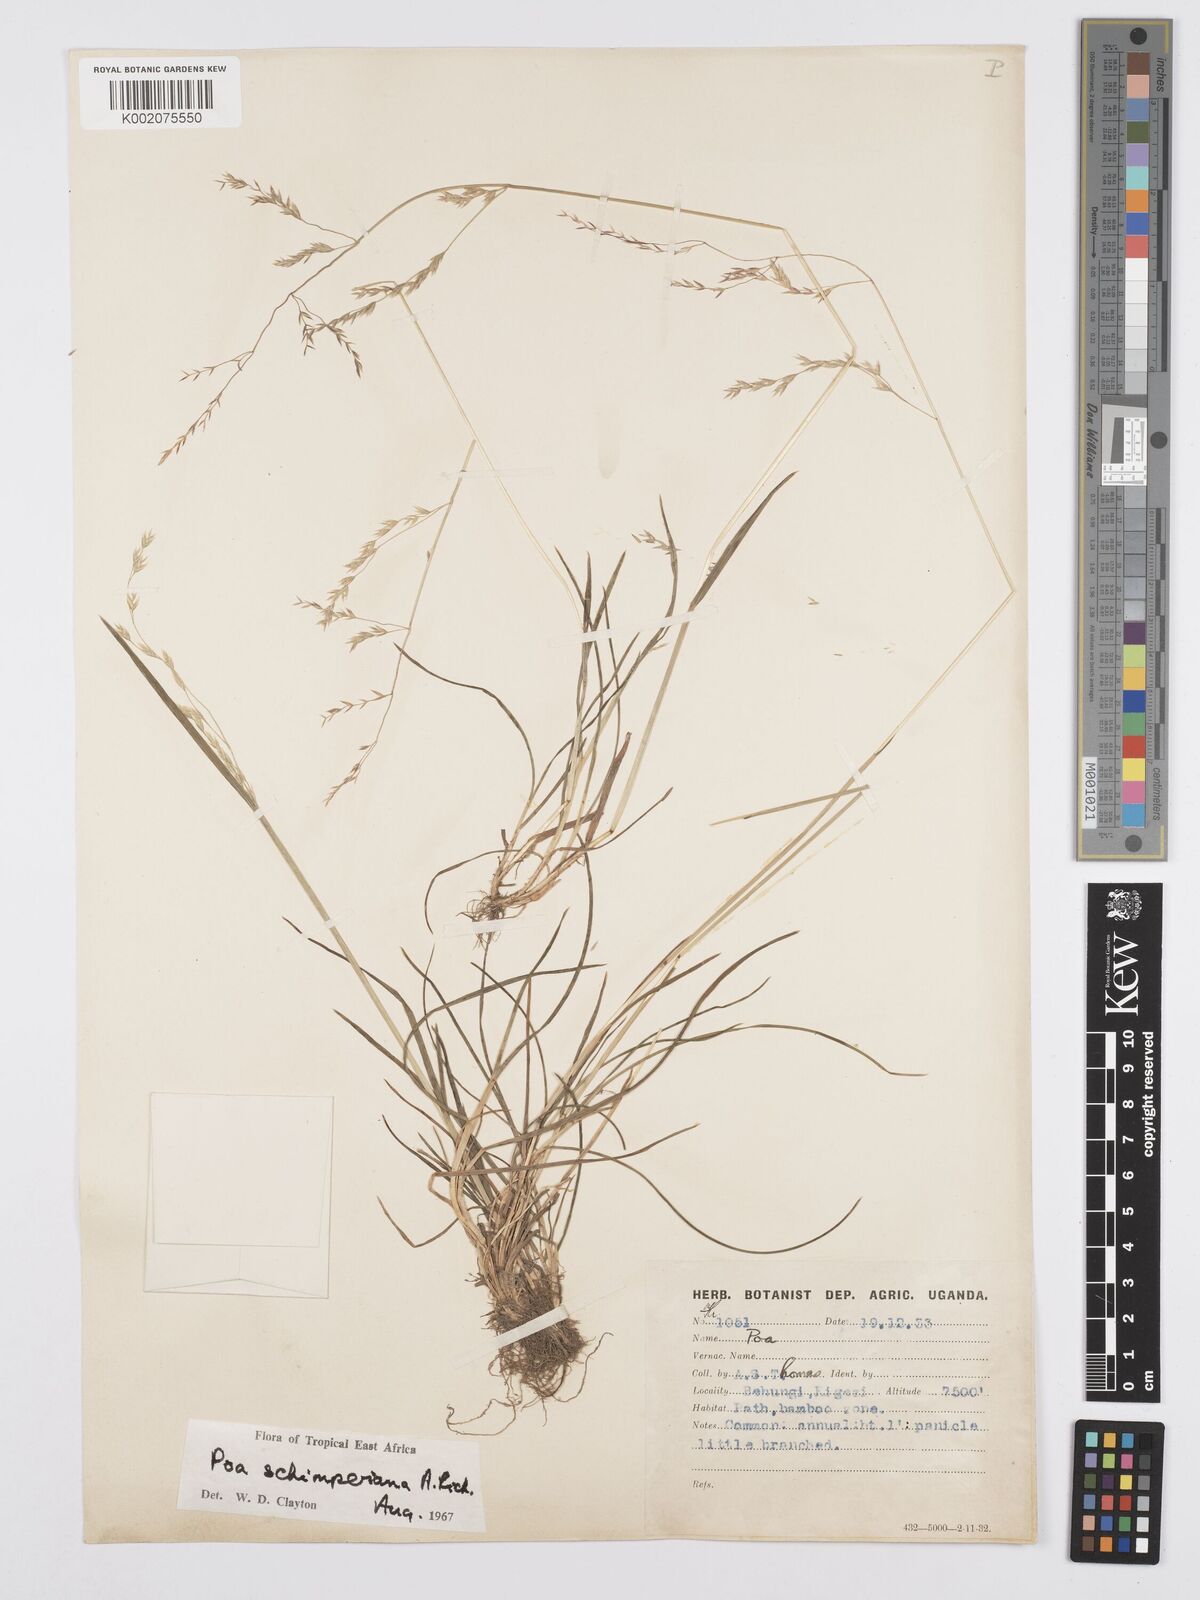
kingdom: Plantae
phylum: Tracheophyta
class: Liliopsida
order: Poales
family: Poaceae
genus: Poa
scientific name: Poa schimperiana
